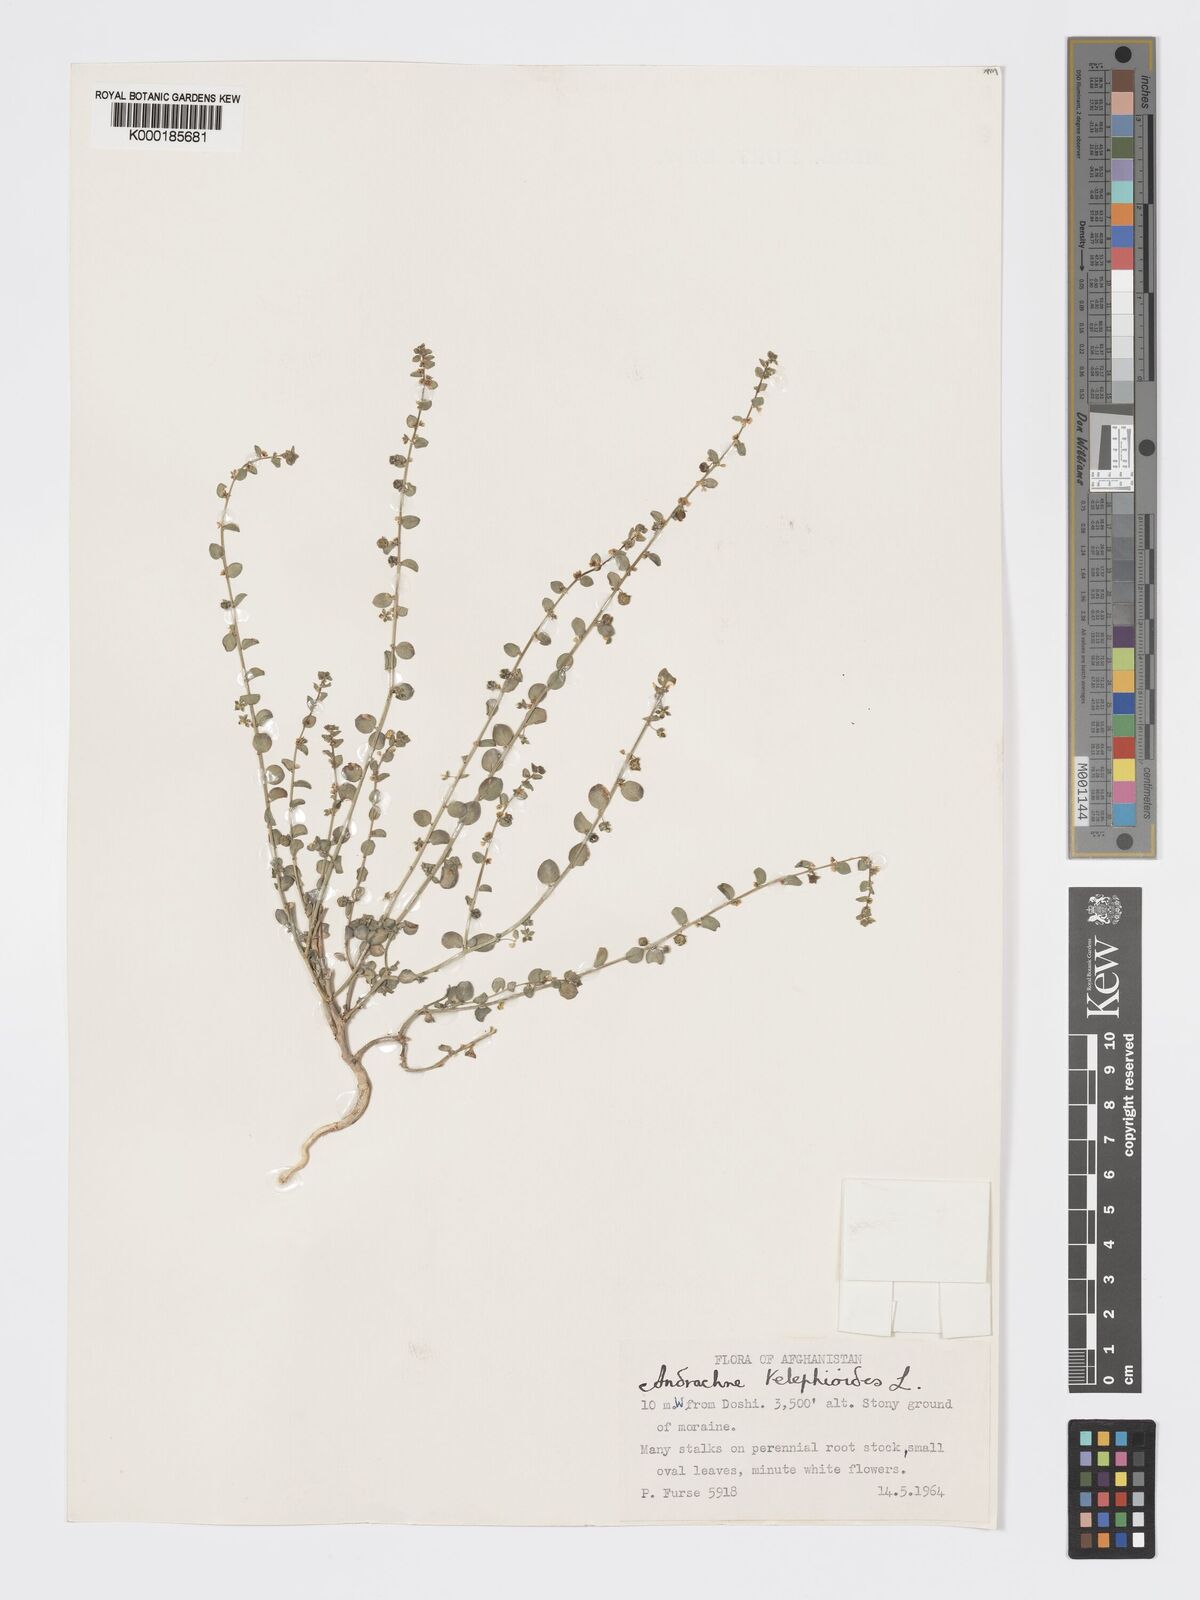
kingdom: Plantae
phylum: Tracheophyta
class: Magnoliopsida
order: Malpighiales
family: Phyllanthaceae
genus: Andrachne
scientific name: Andrachne telephioides
